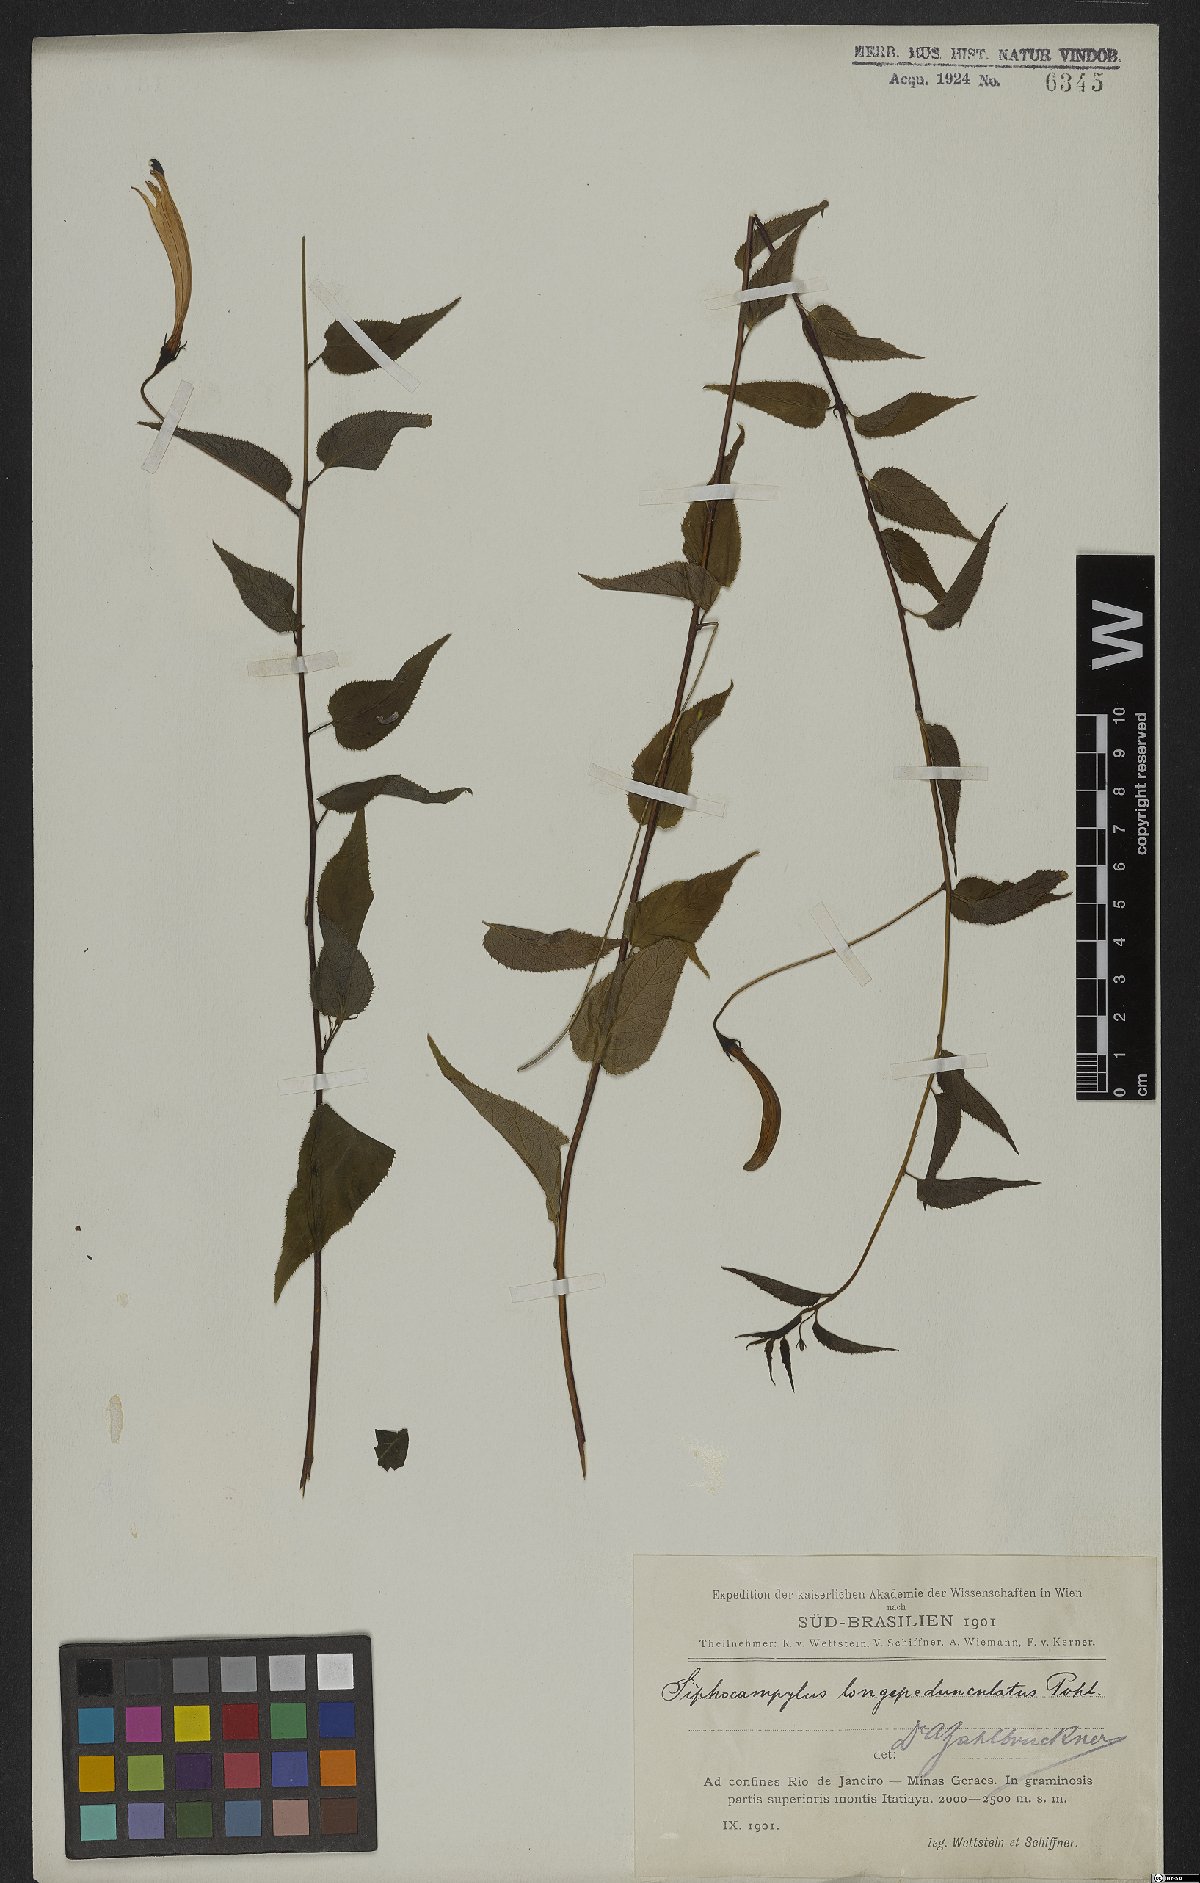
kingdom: Plantae
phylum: Tracheophyta
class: Magnoliopsida
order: Asterales
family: Campanulaceae
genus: Siphocampylus
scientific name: Siphocampylus longipedunculatus
